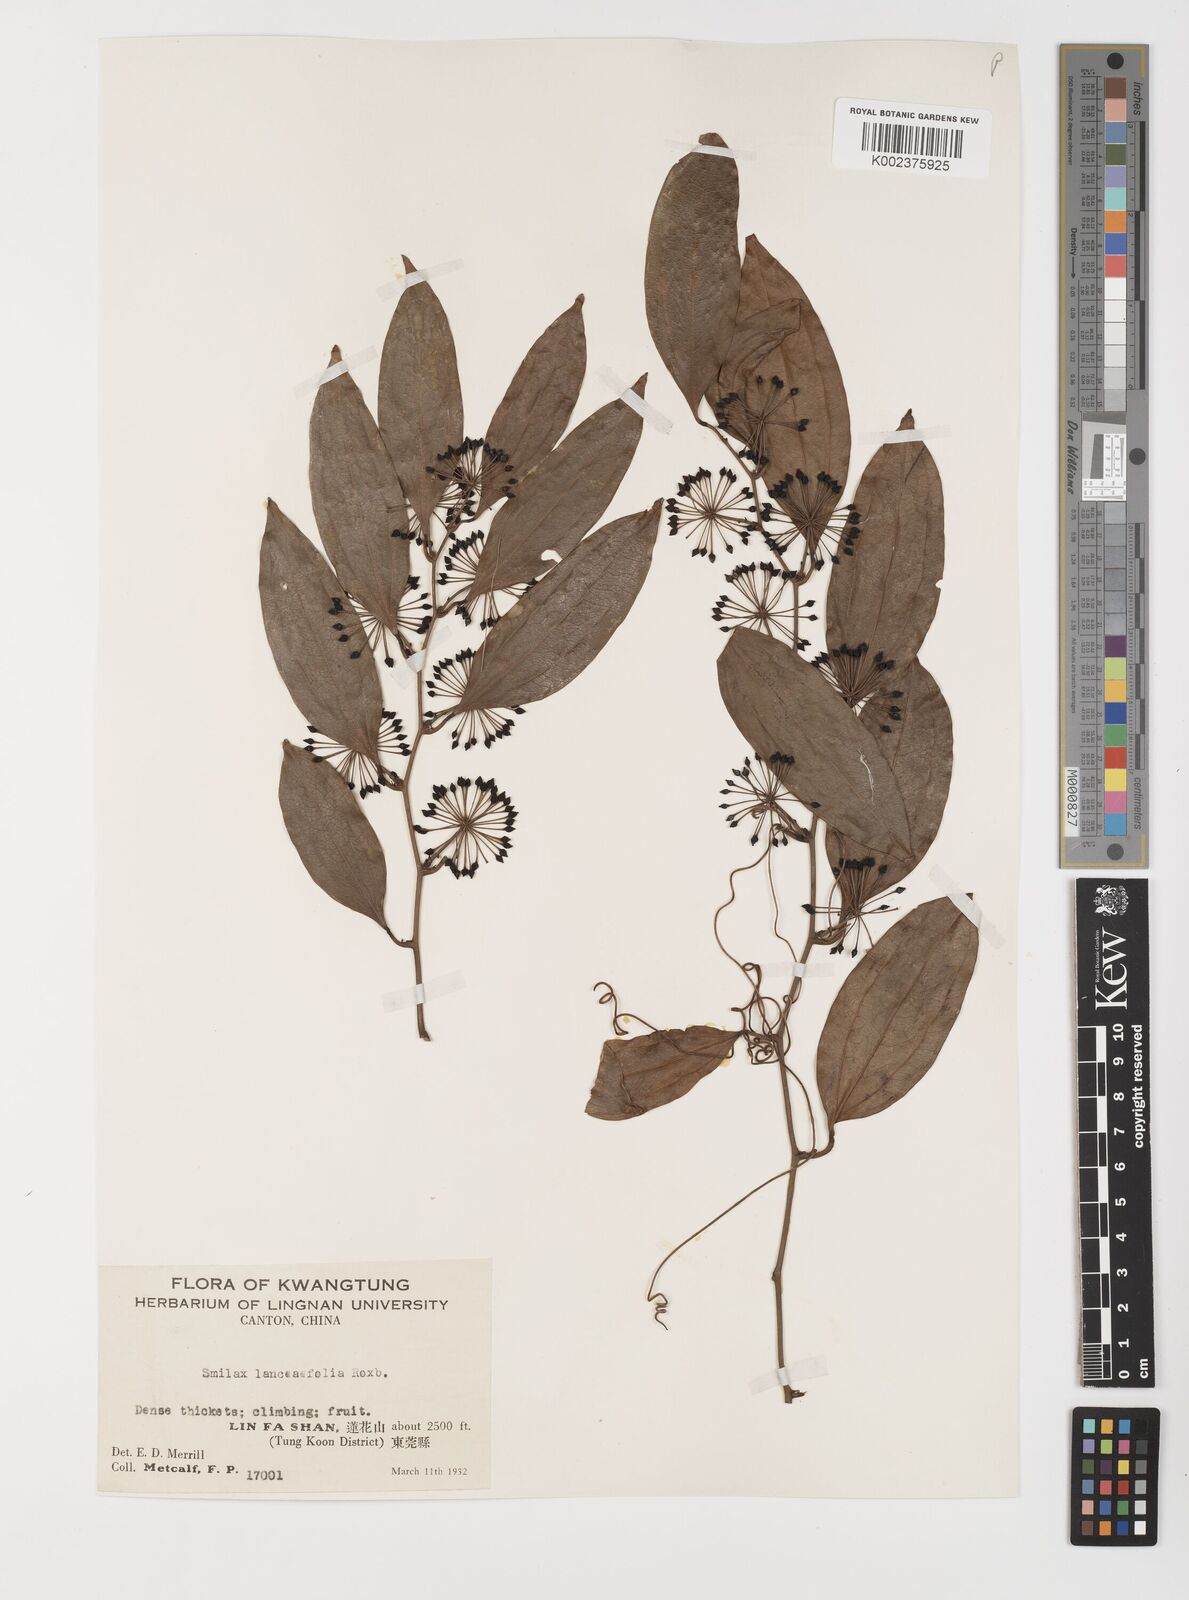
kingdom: Plantae
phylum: Tracheophyta
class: Liliopsida
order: Liliales
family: Smilacaceae
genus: Smilax
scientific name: Smilax lanceifolia
